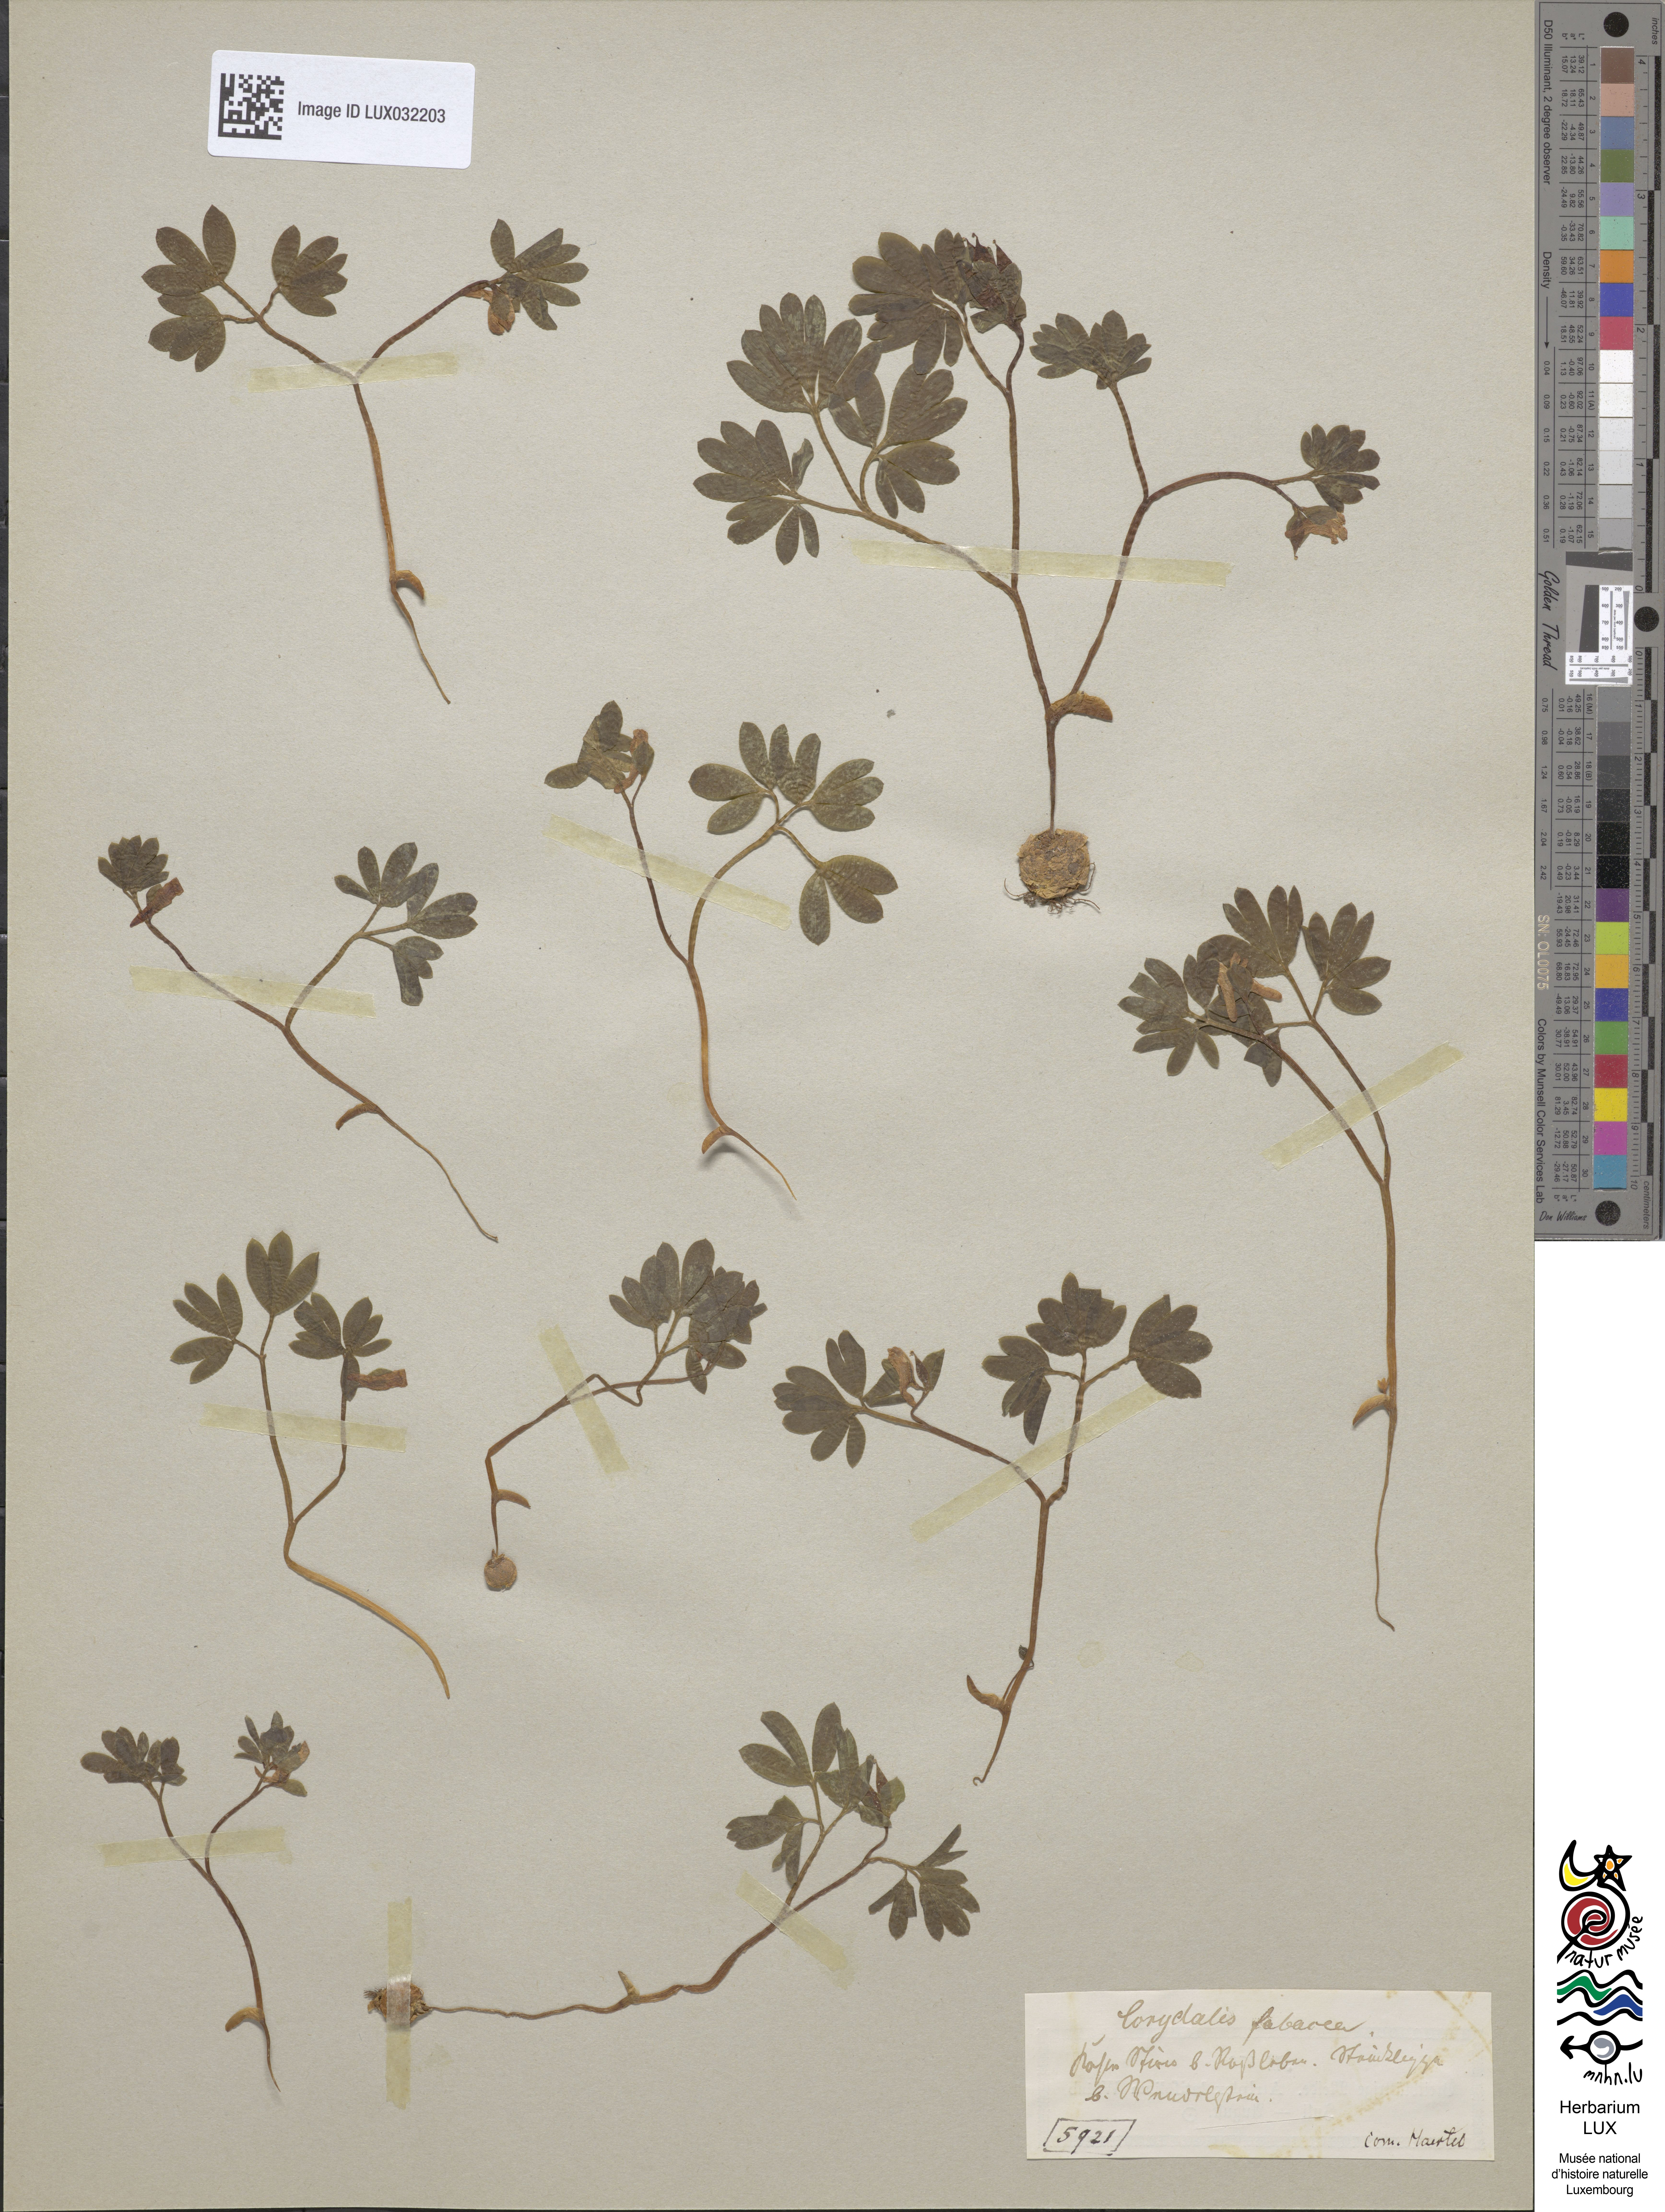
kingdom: Plantae
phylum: Tracheophyta
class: Magnoliopsida
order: Ranunculales
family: Papaveraceae
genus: Corydalis
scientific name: Corydalis intermedia
